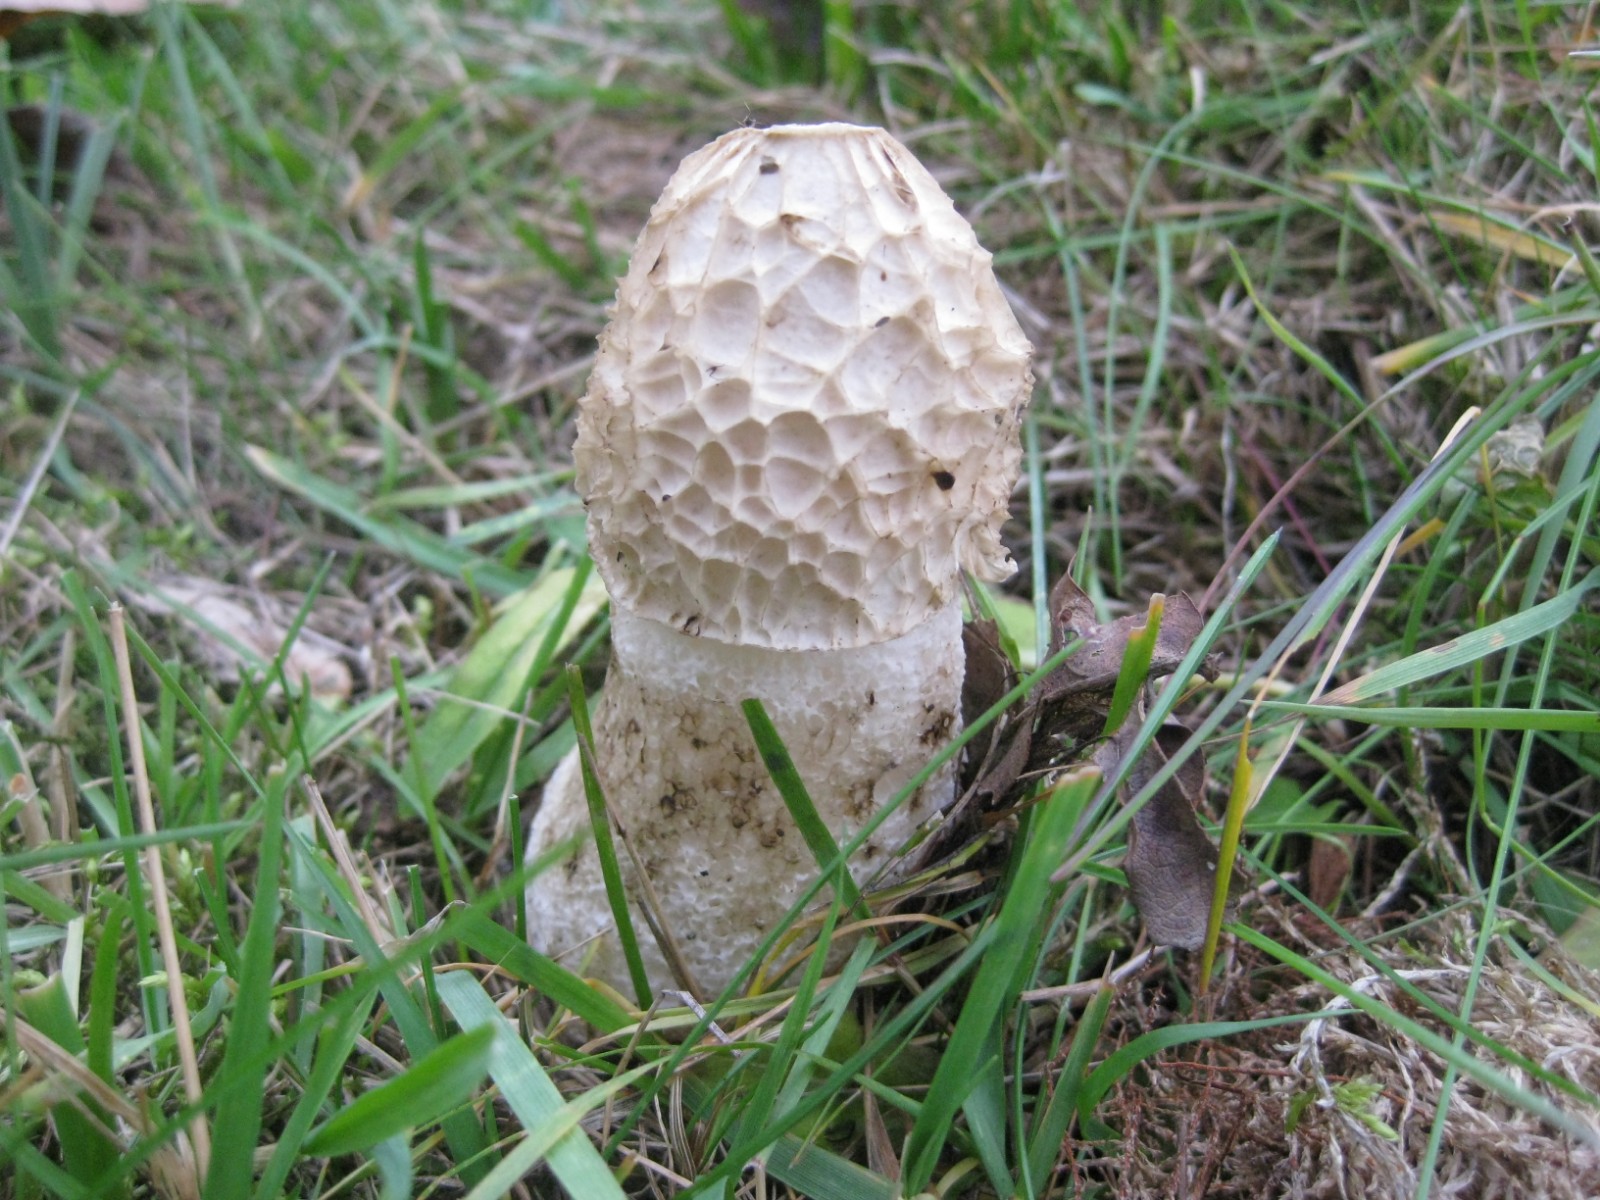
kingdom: Fungi
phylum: Basidiomycota
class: Agaricomycetes
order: Phallales
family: Phallaceae
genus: Phallus
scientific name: Phallus impudicus
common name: almindelig stinksvamp
